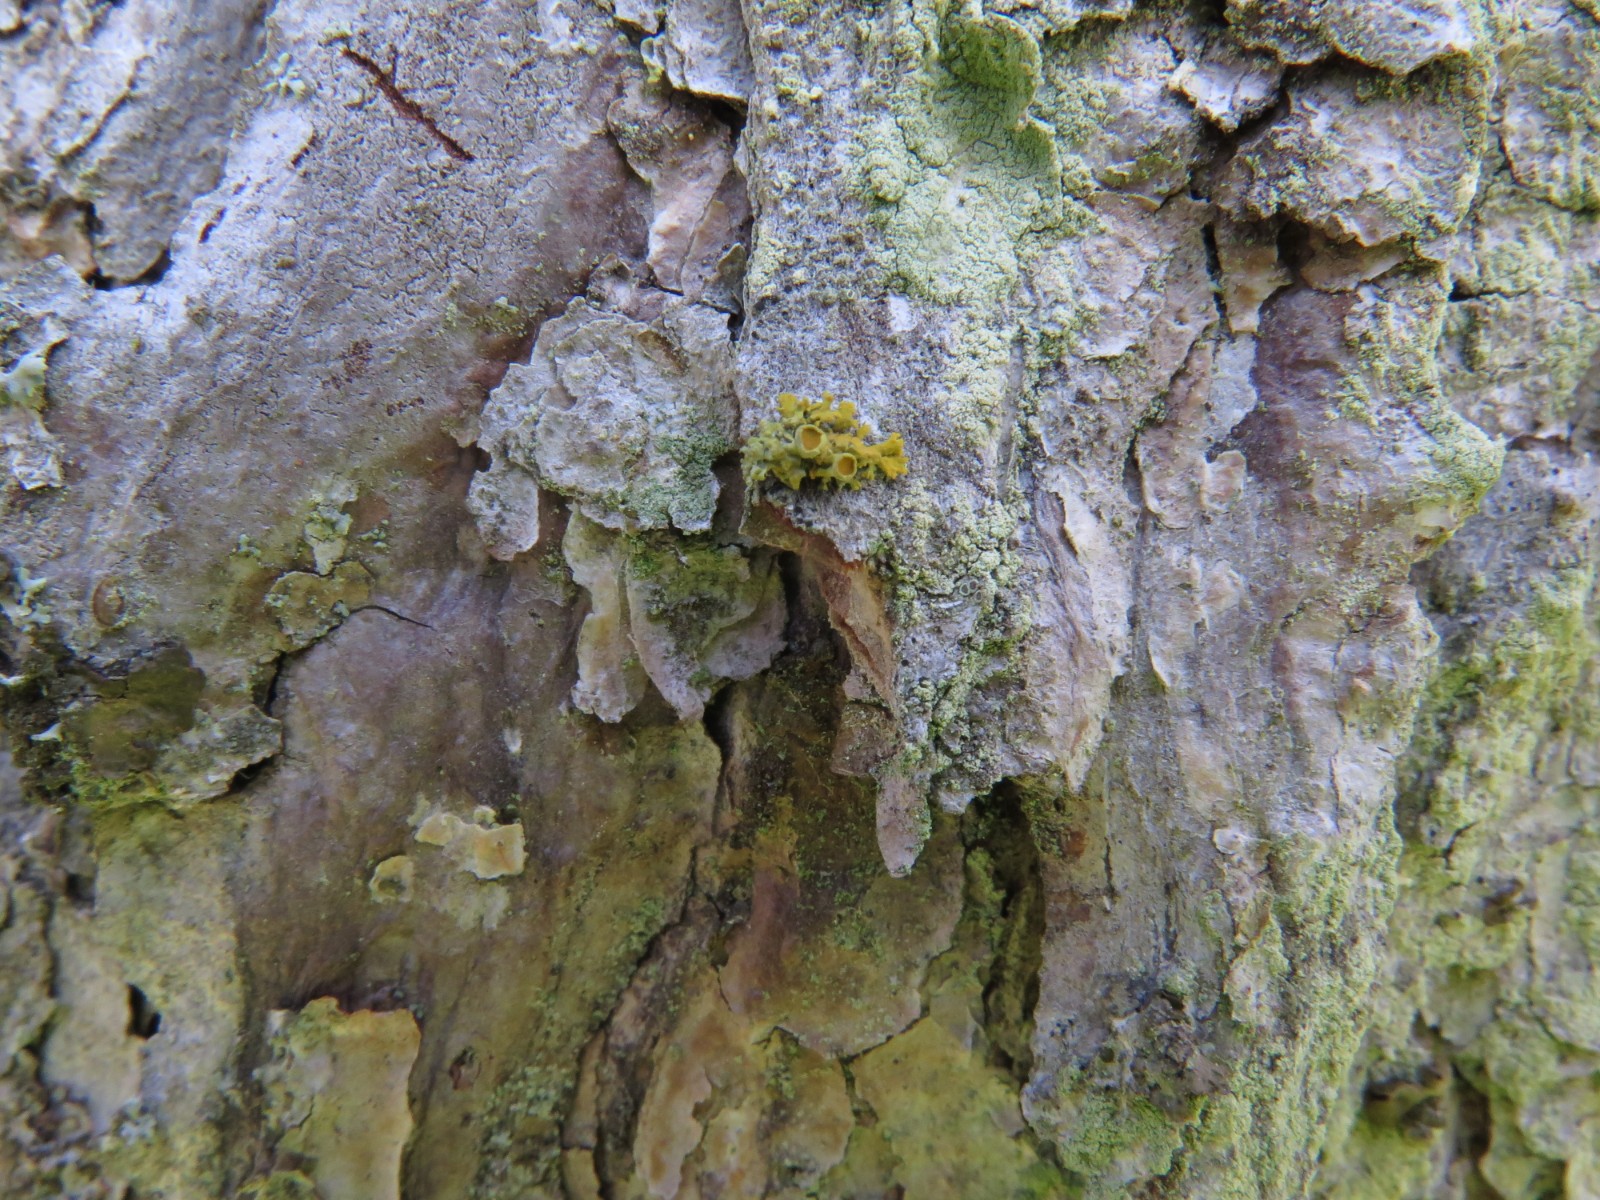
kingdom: Fungi
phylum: Ascomycota
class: Lecanoromycetes
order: Teloschistales
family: Teloschistaceae
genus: Polycauliona
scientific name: Polycauliona polycarpa
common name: mangefrugtet orangelav
